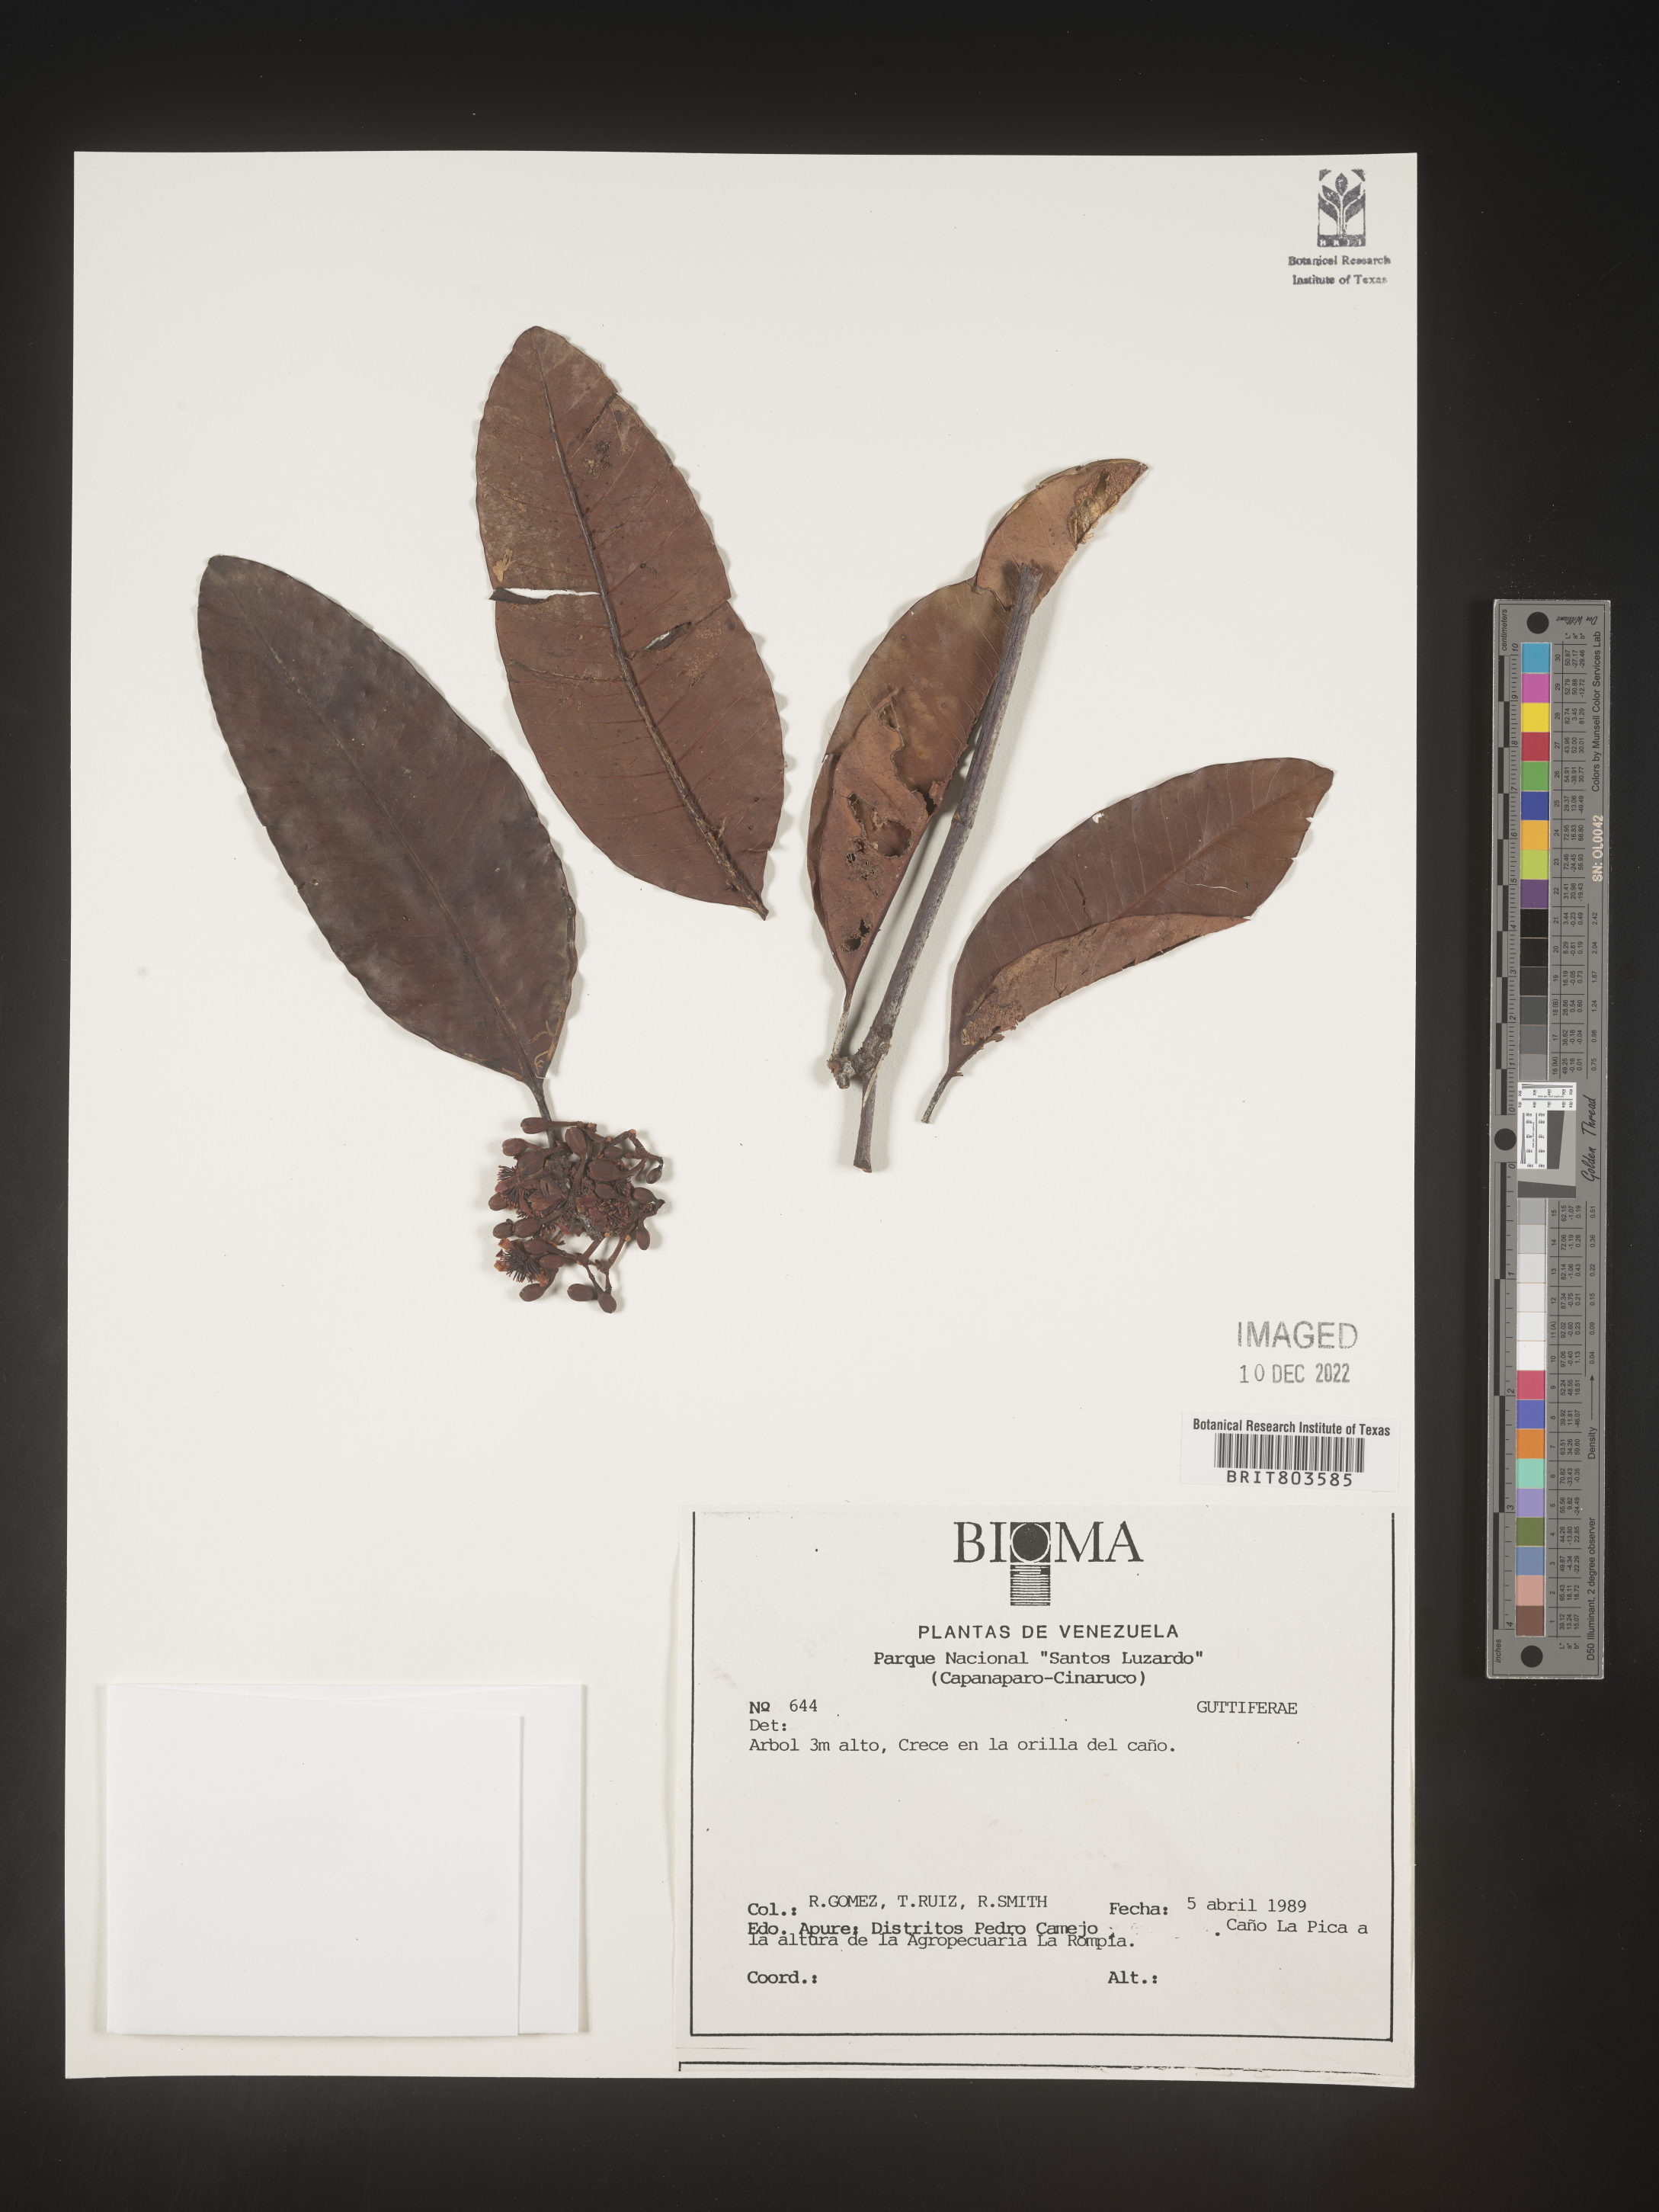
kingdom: Plantae
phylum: Tracheophyta
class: Magnoliopsida
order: Malpighiales
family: Clusiaceae
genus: Tovomita
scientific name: Tovomita
